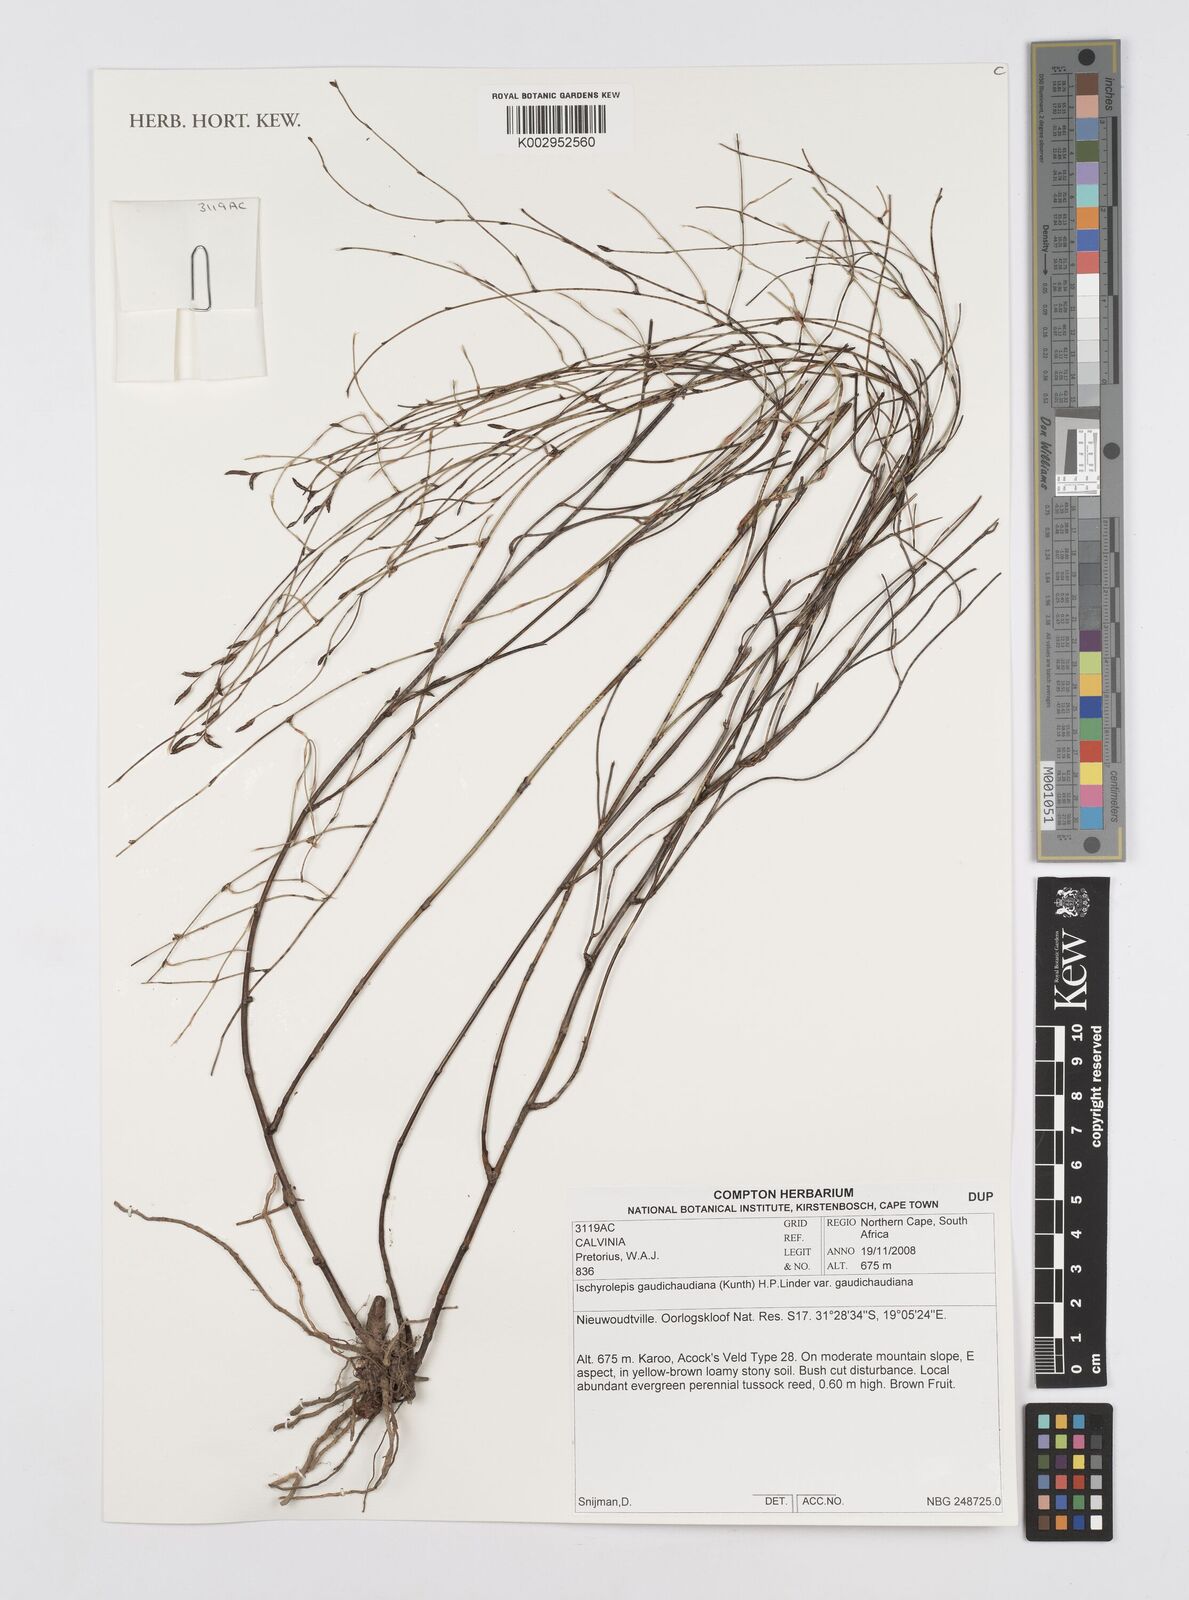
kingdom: Plantae
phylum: Tracheophyta
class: Liliopsida
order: Poales
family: Restionaceae
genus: Restio
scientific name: Restio gaudichaudianus
